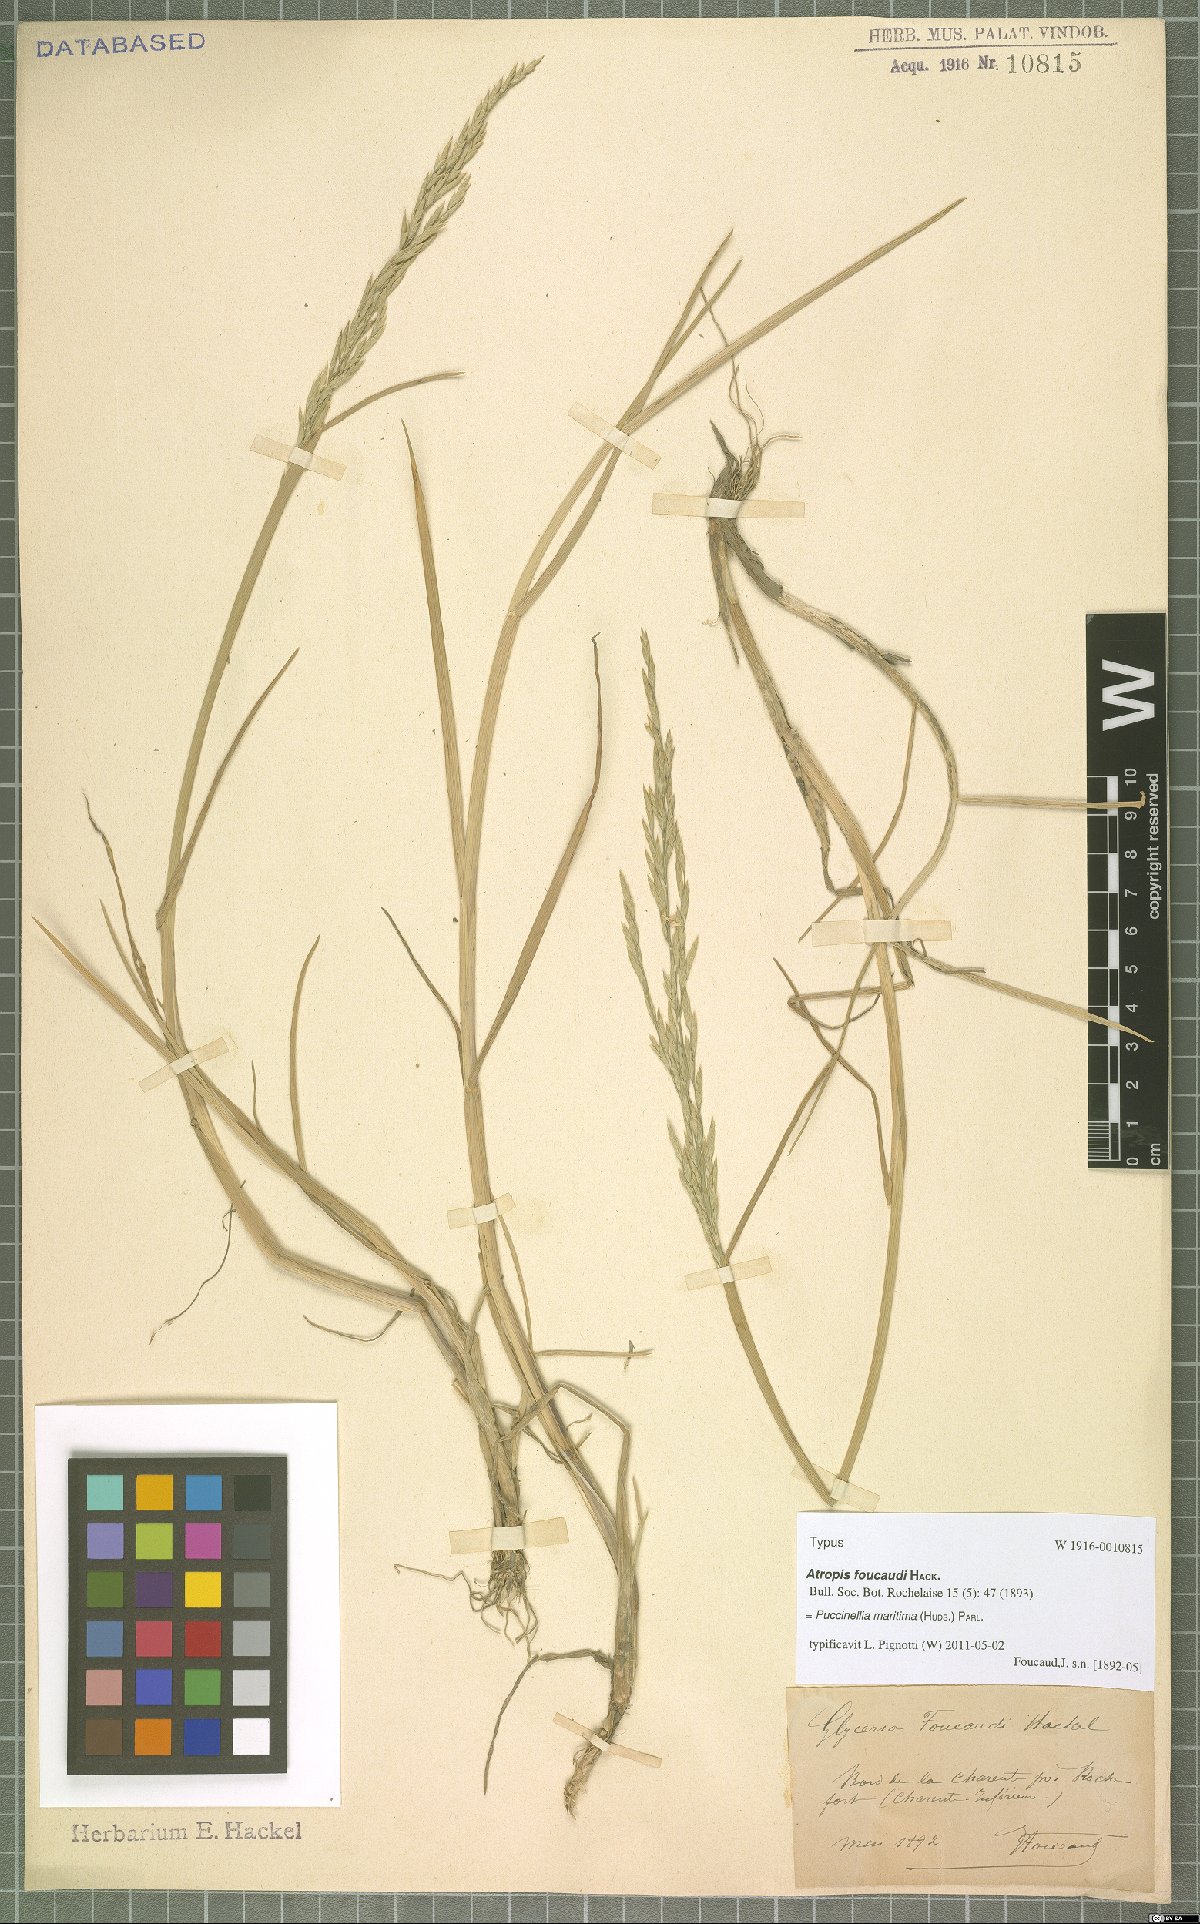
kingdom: Plantae
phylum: Tracheophyta
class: Liliopsida
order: Poales
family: Poaceae
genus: Puccinellia
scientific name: Puccinellia maritima
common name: Common saltmarsh grass
